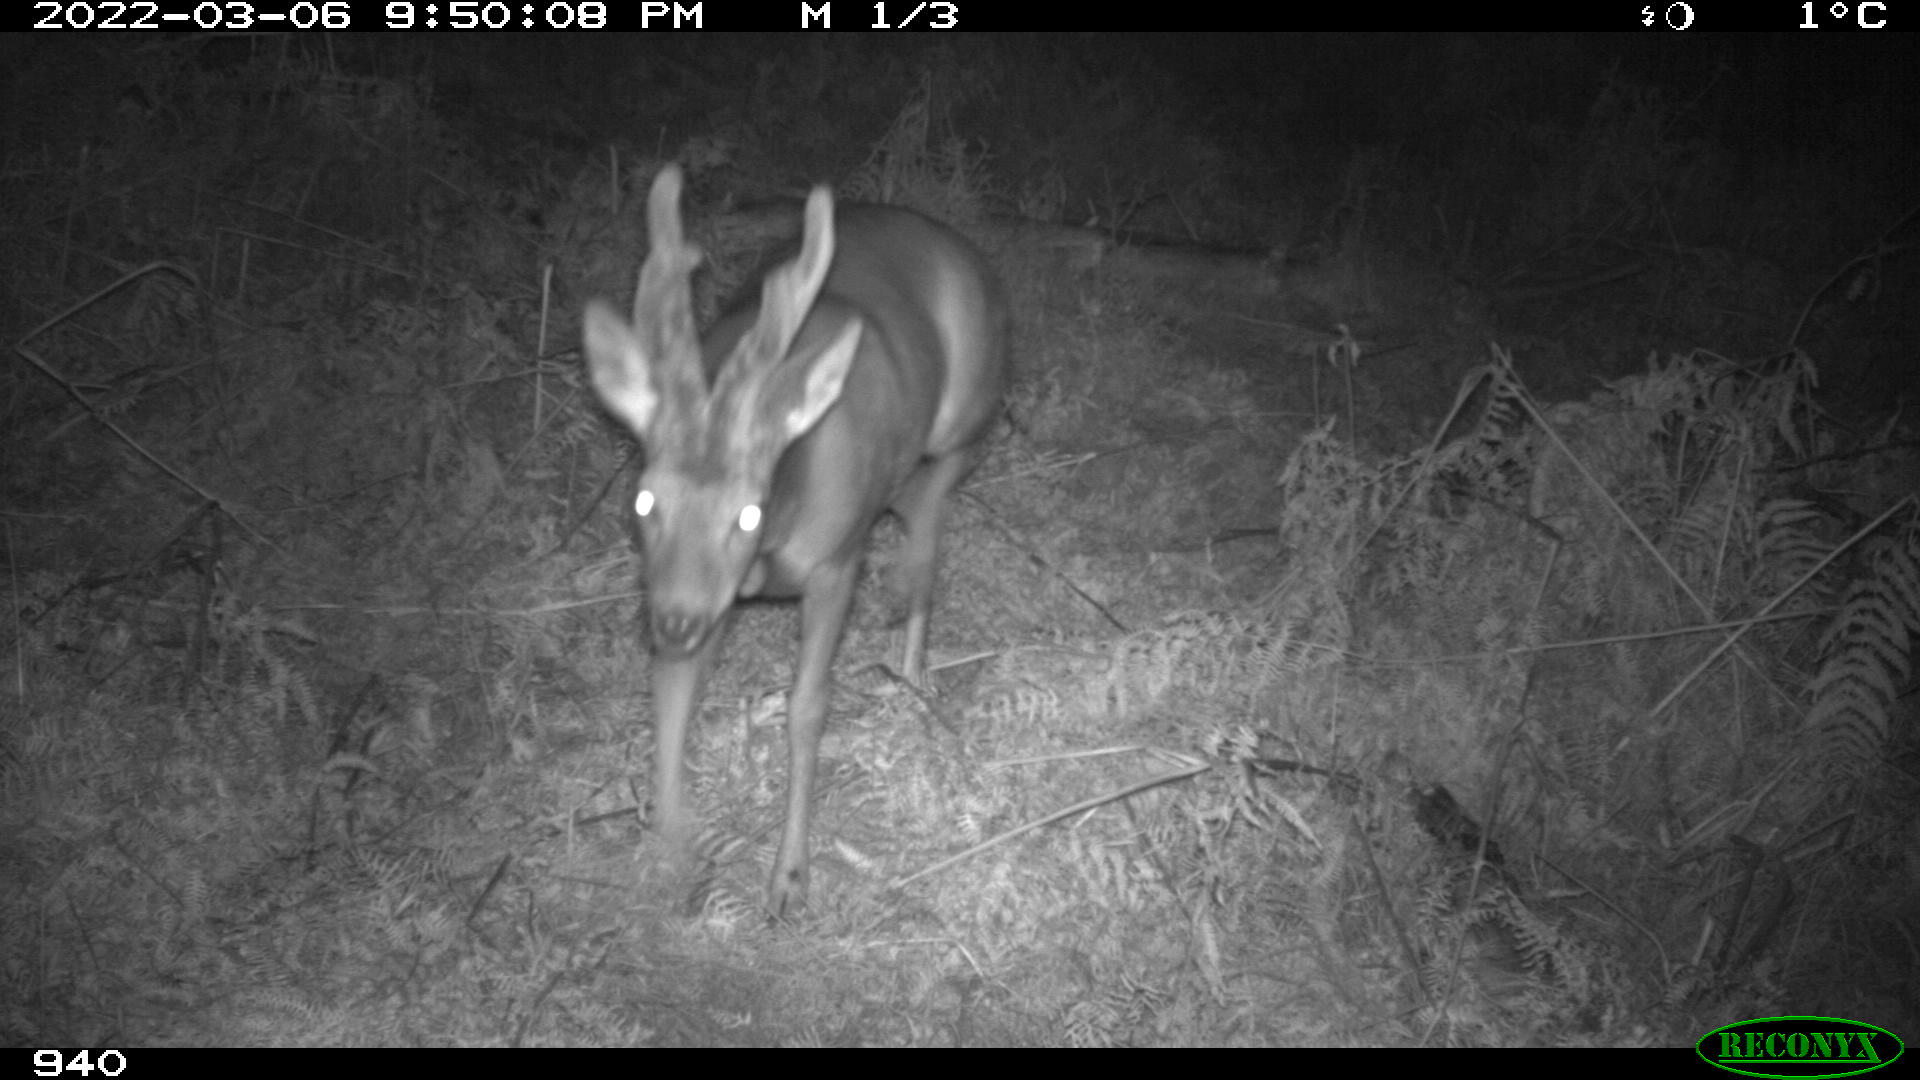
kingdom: Animalia
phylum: Chordata
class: Mammalia
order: Artiodactyla
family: Cervidae
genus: Capreolus
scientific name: Capreolus capreolus
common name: Western roe deer
